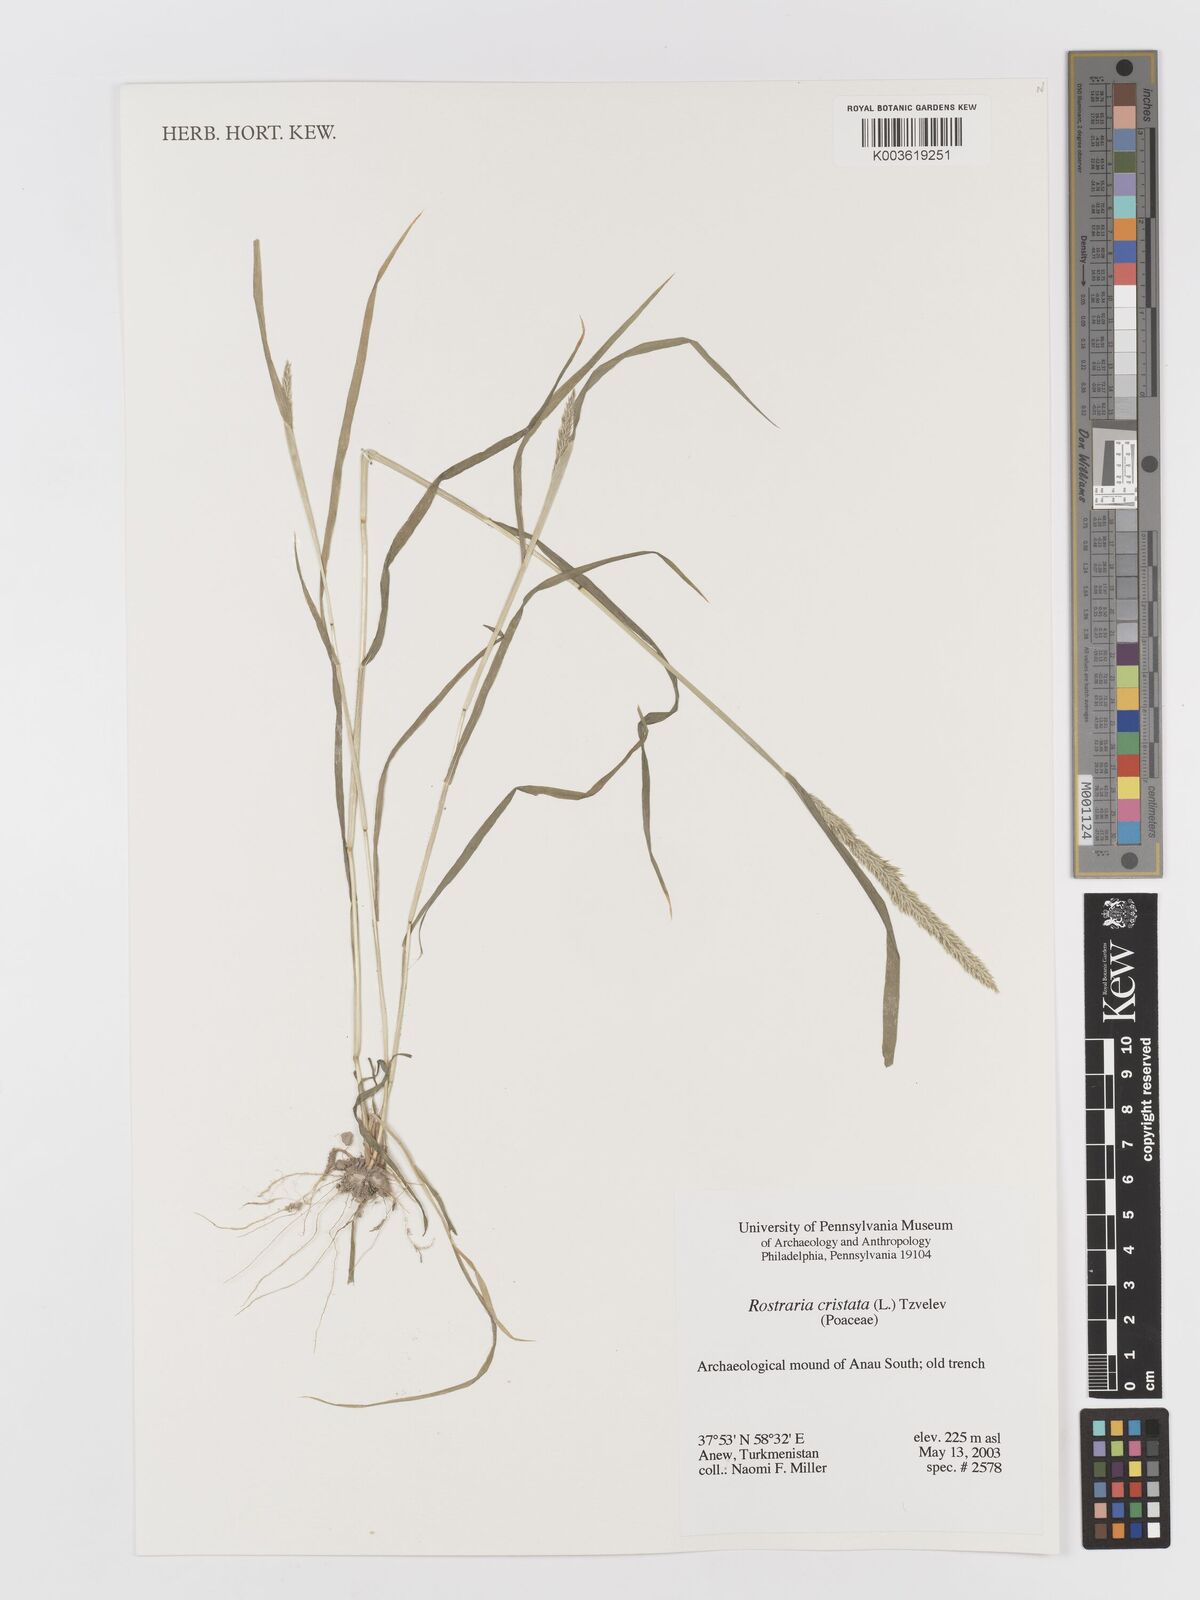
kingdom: Plantae
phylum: Tracheophyta
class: Liliopsida
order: Poales
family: Poaceae
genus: Rostraria
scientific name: Rostraria cristata
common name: Mediterranean hair-grass
